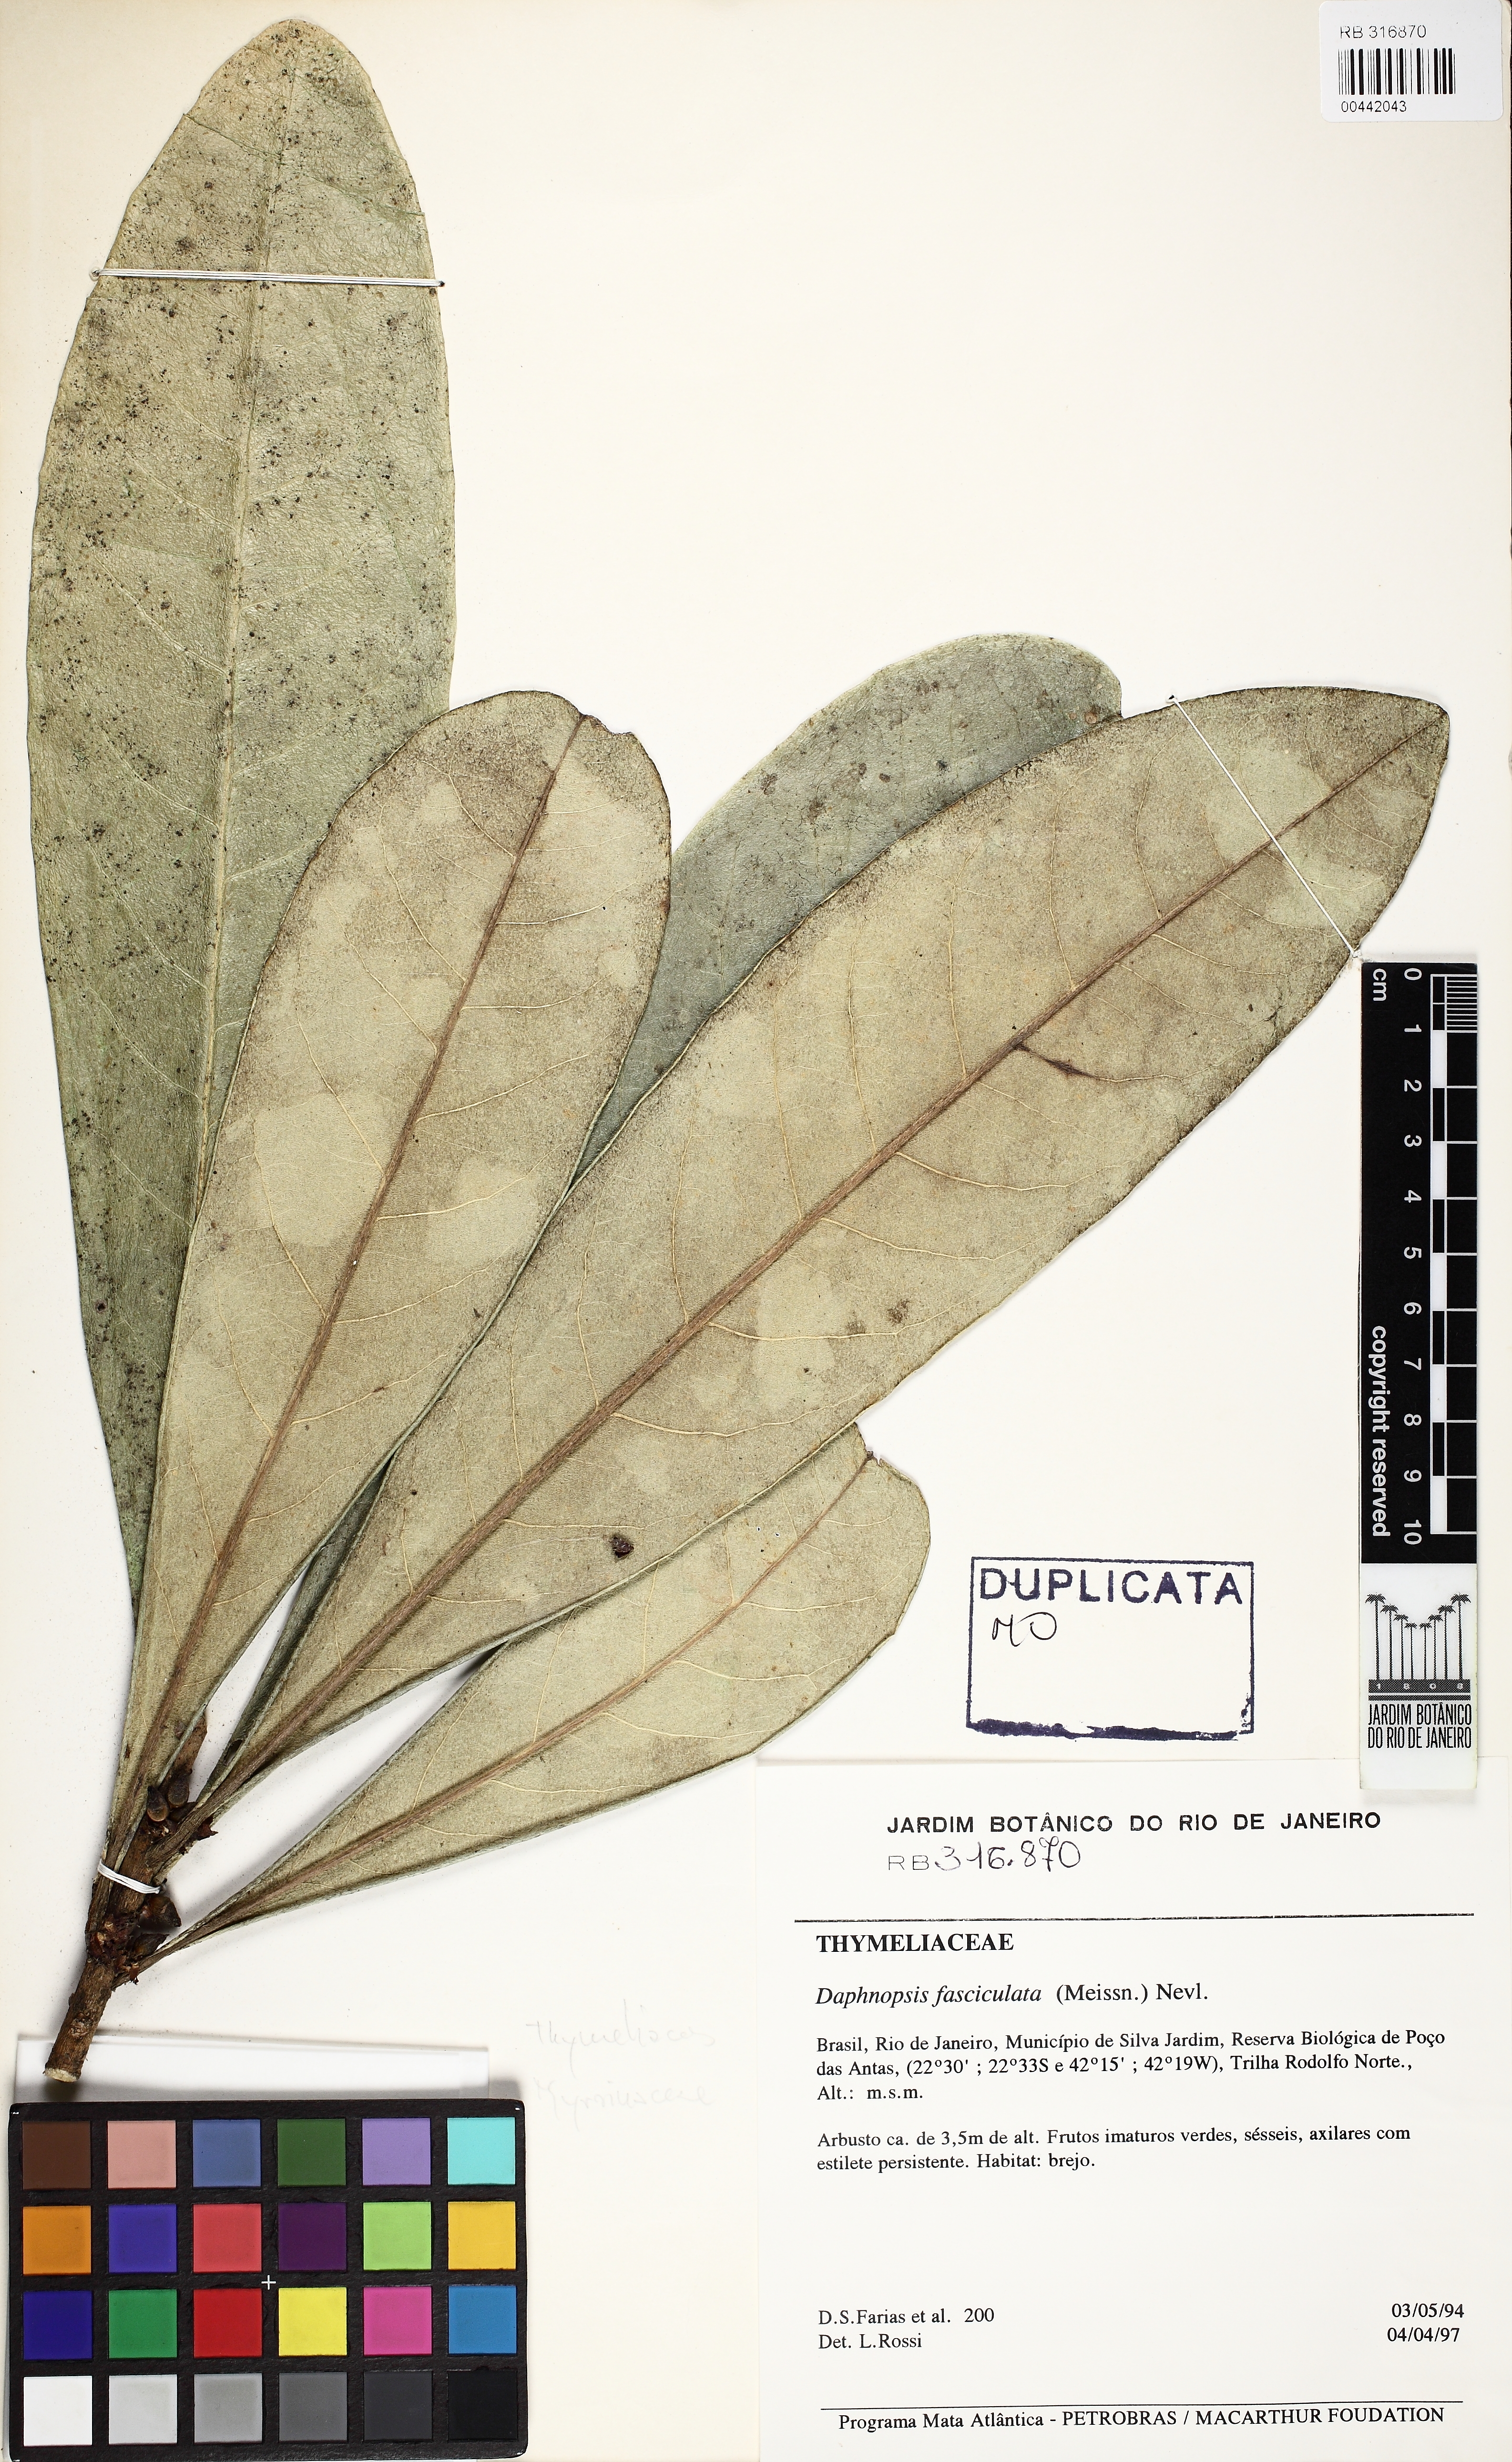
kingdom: Plantae
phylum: Tracheophyta
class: Magnoliopsida
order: Malvales
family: Thymelaeaceae
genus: Daphnopsis
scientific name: Daphnopsis fasciculata
